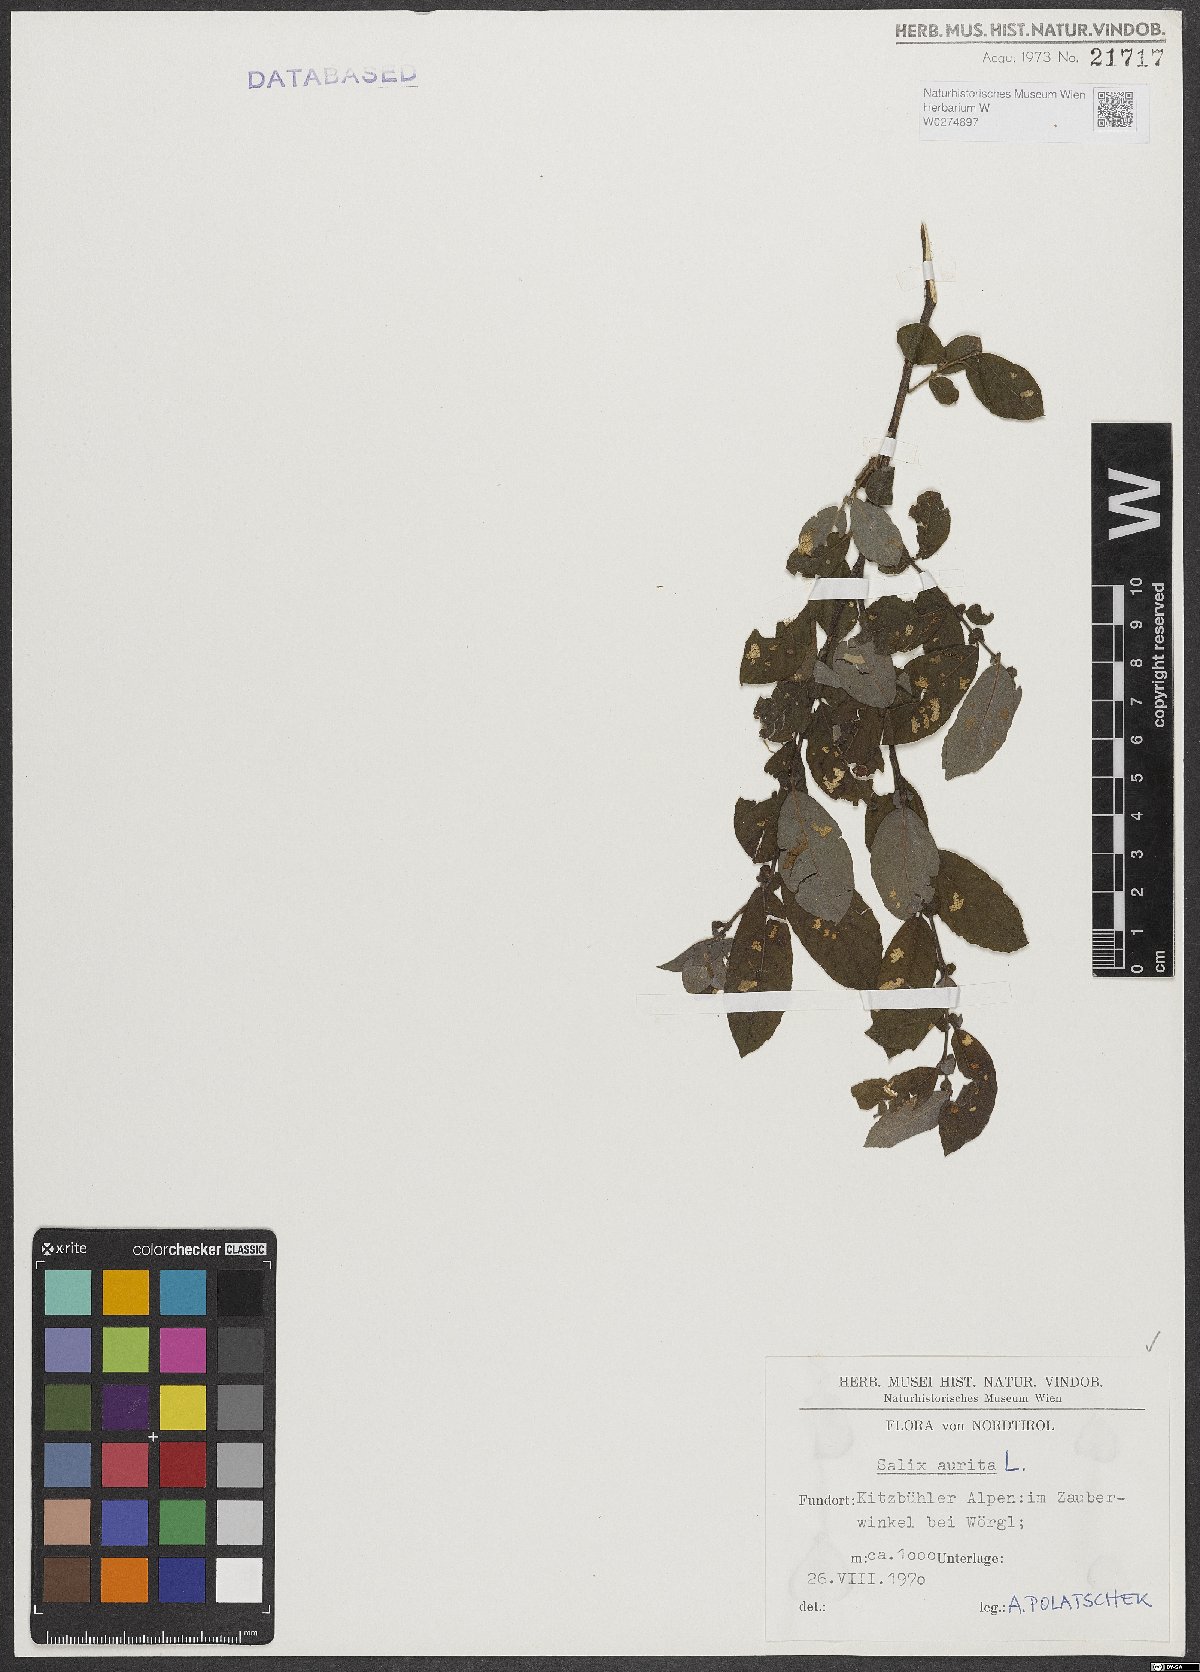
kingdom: Plantae
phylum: Tracheophyta
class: Magnoliopsida
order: Malpighiales
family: Salicaceae
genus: Salix
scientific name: Salix aurita
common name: Eared willow
